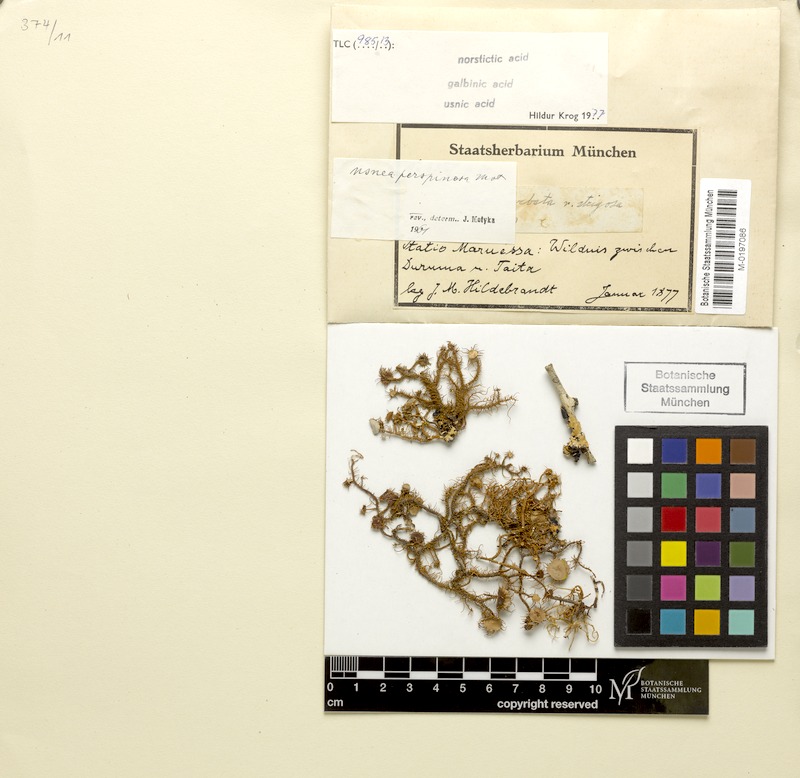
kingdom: Fungi
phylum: Ascomycota
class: Lecanoromycetes
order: Lecanorales
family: Parmeliaceae
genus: Usnea
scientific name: Usnea perspinosa
